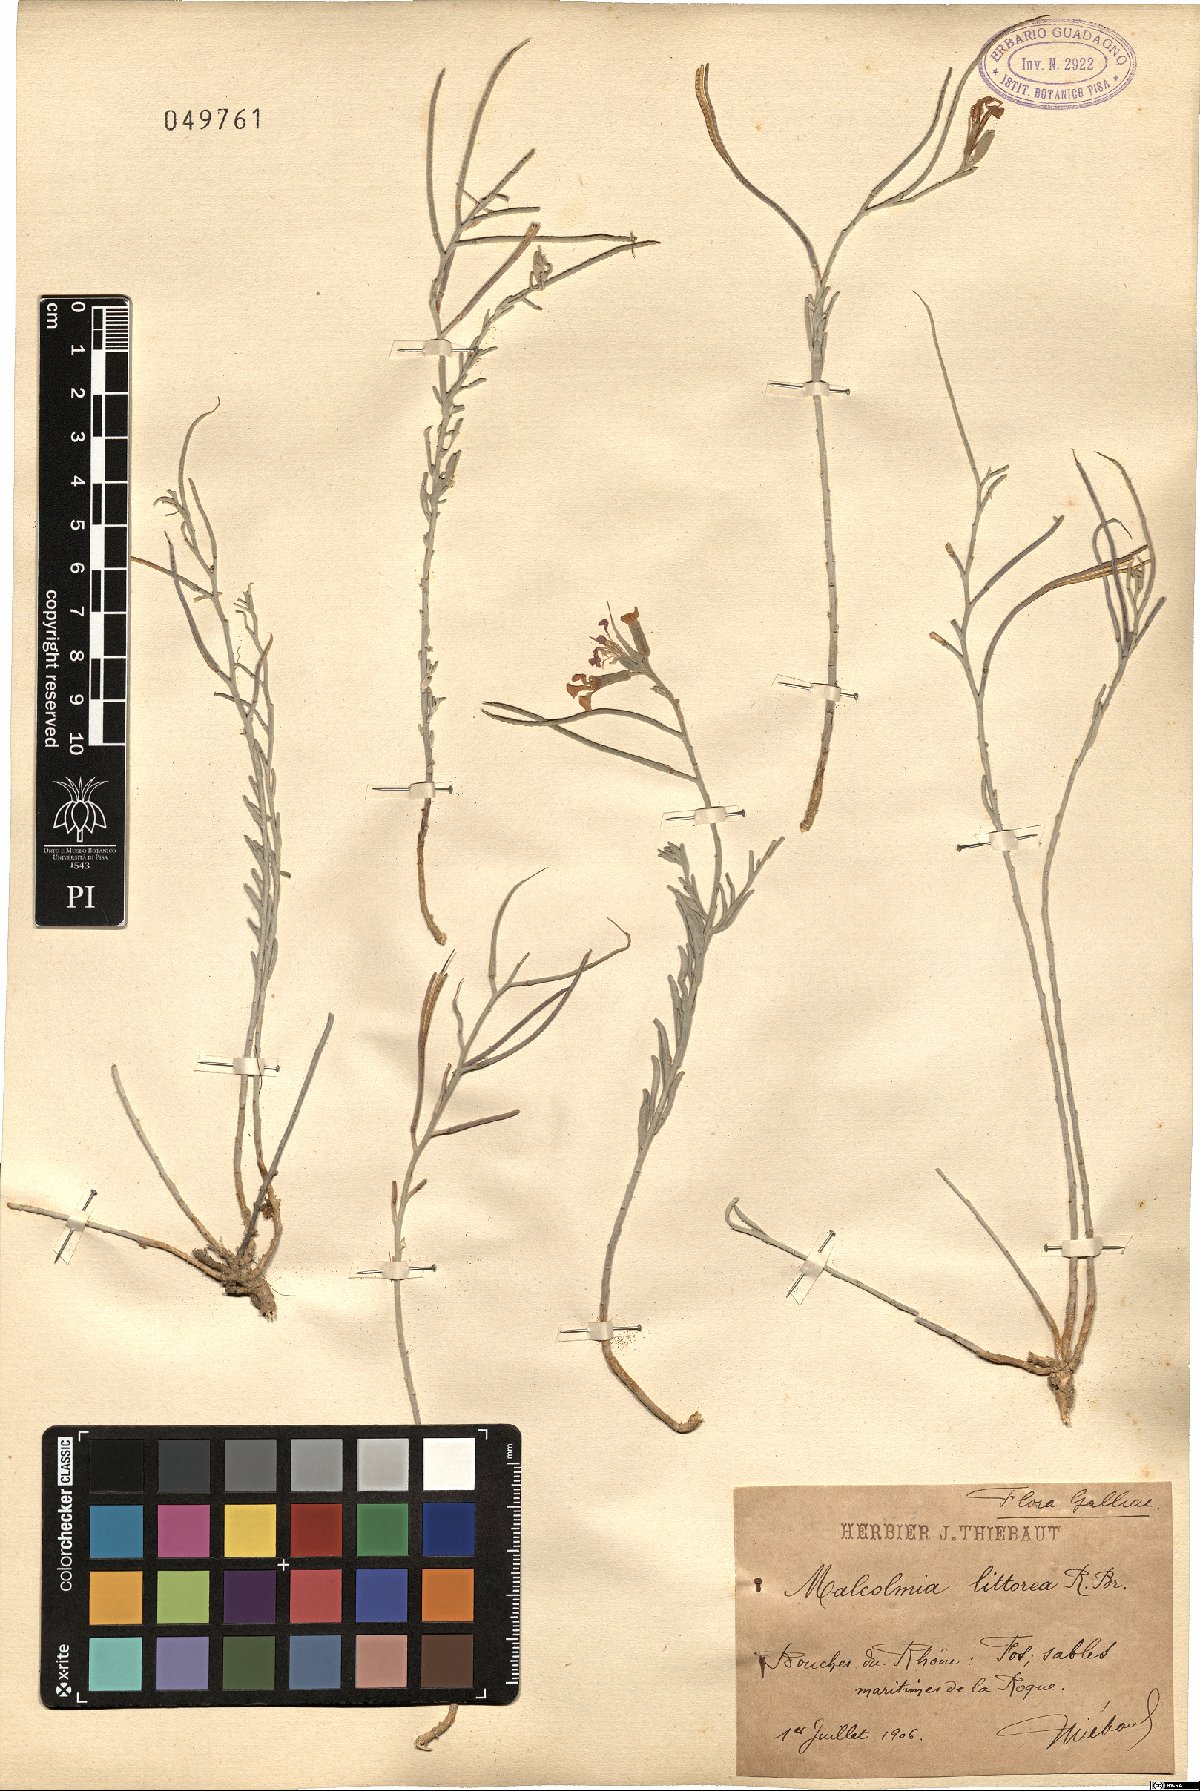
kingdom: Plantae
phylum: Tracheophyta
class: Magnoliopsida
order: Brassicales
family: Brassicaceae
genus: Marcuskochia
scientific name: Marcuskochia littorea
